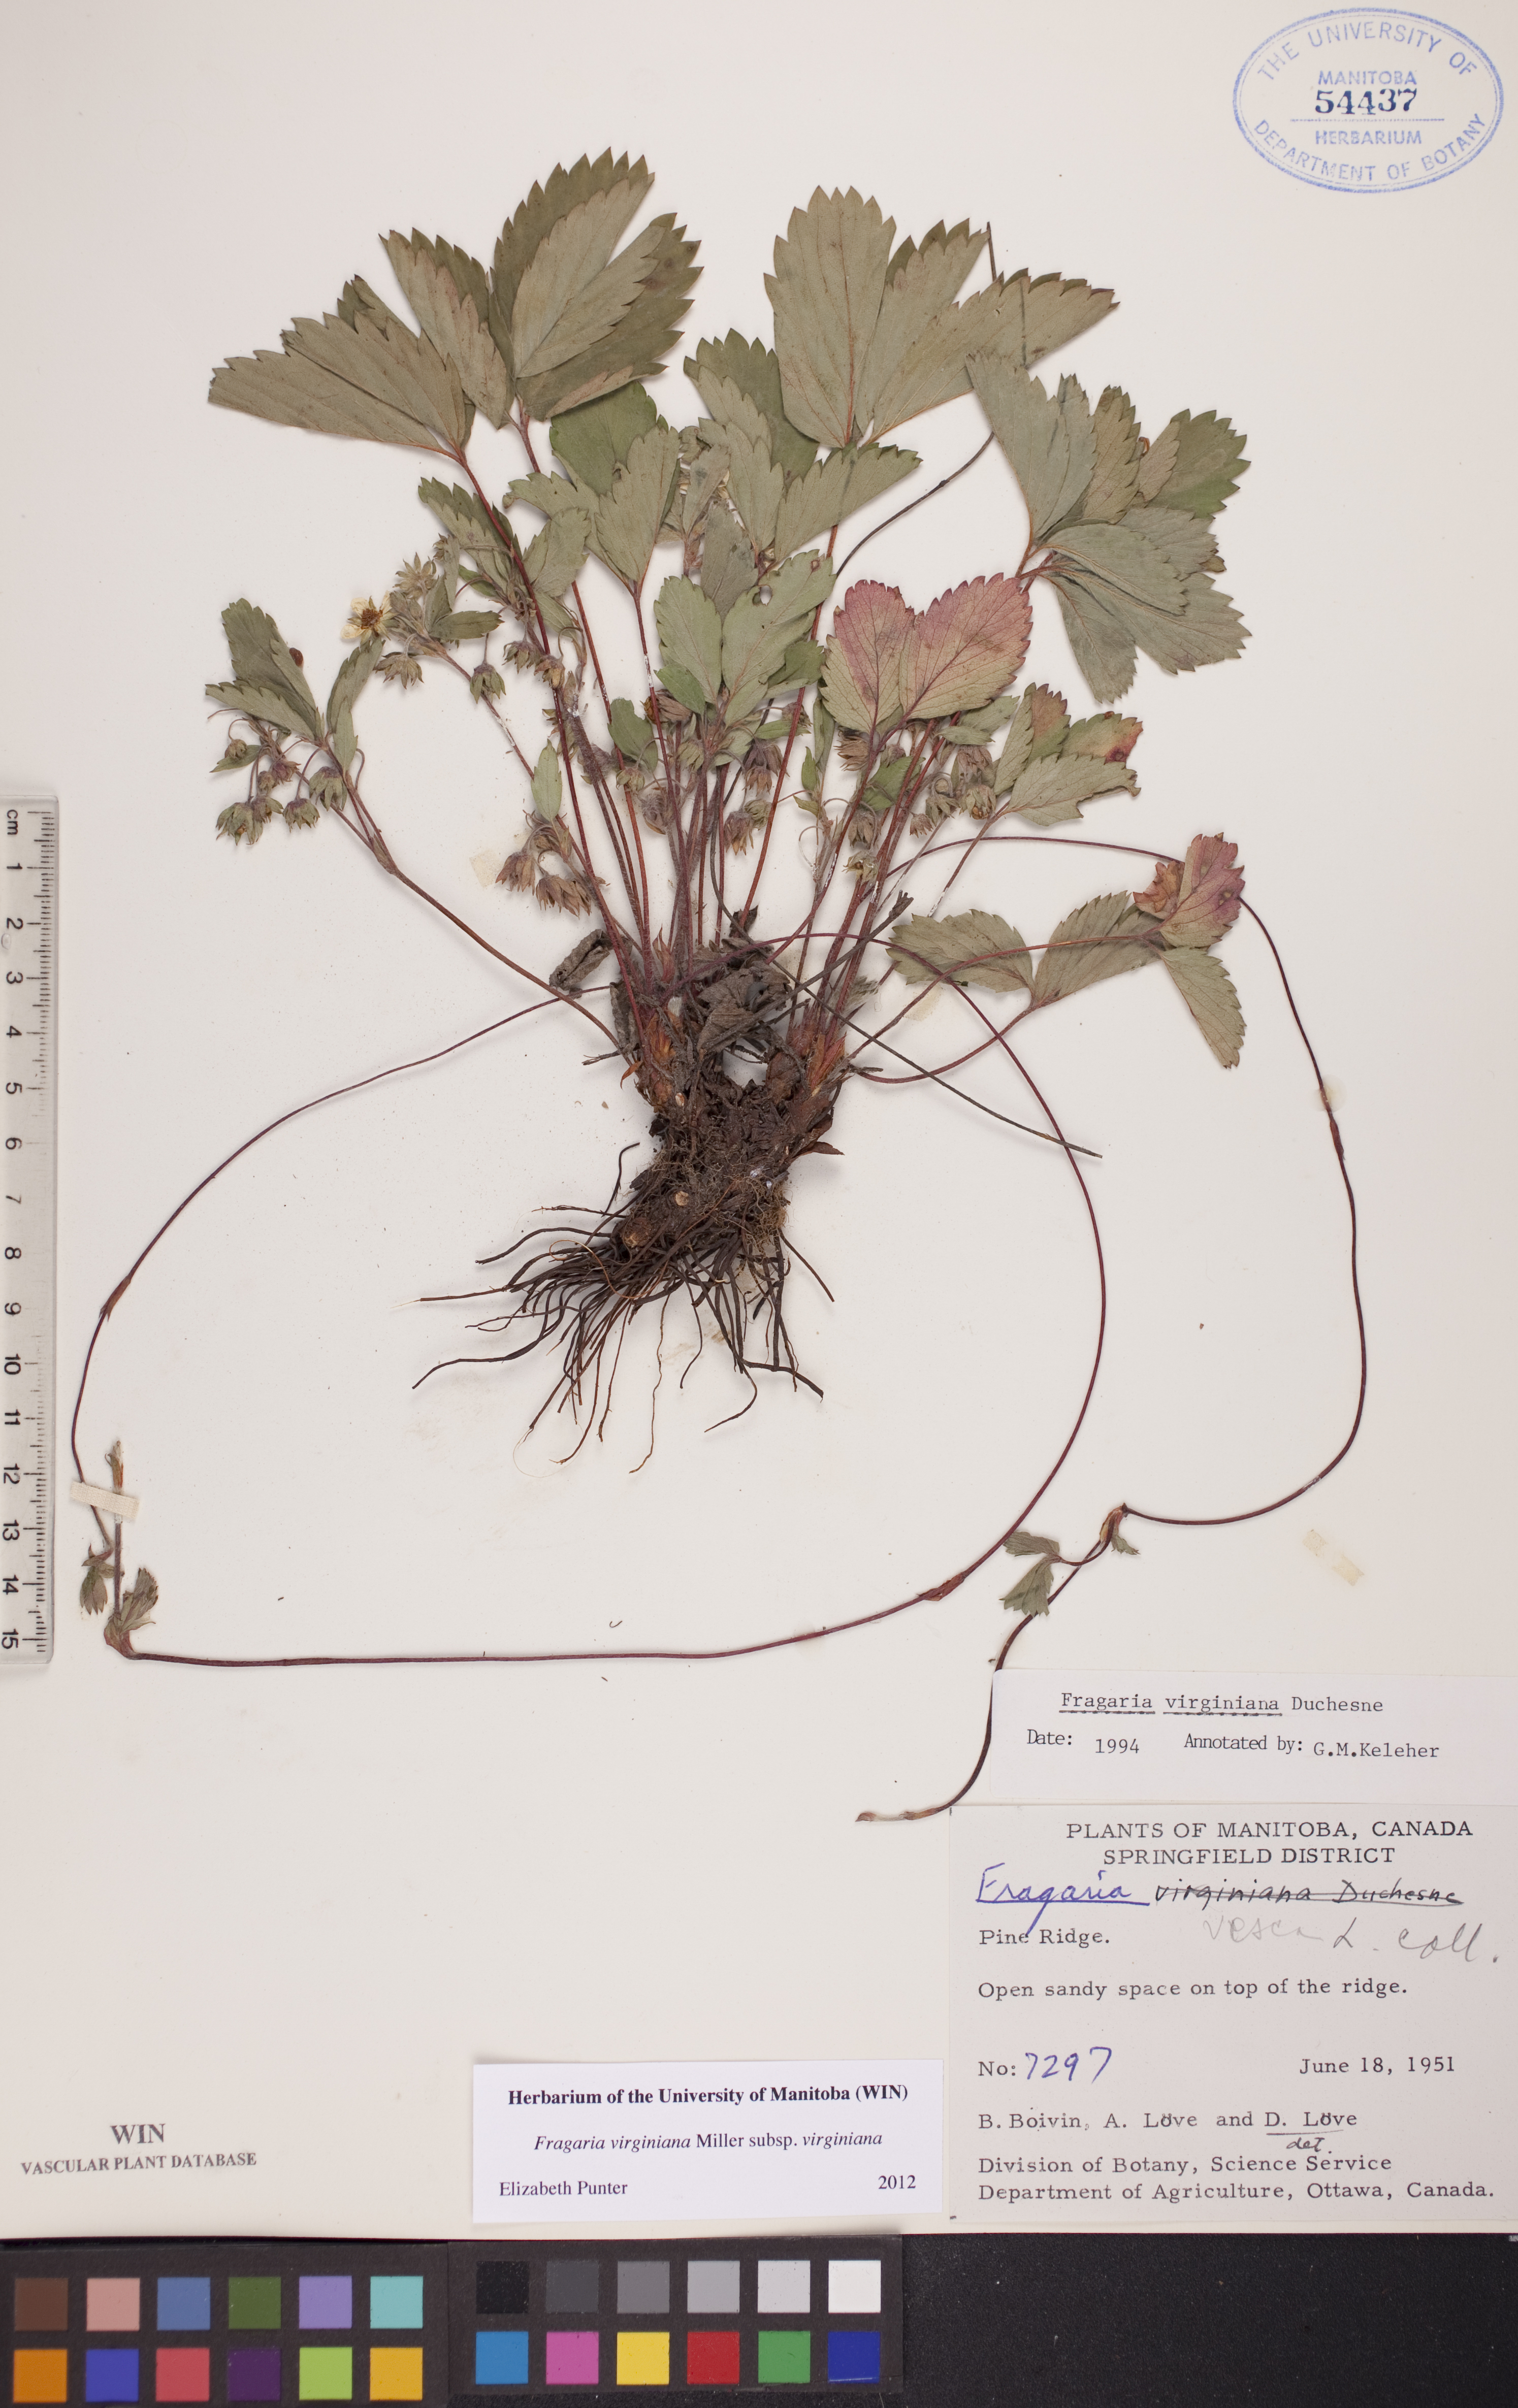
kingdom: Plantae
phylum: Tracheophyta
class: Magnoliopsida
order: Rosales
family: Rosaceae
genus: Fragaria
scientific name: Fragaria virginiana
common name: Thickleaved wild strawberry
